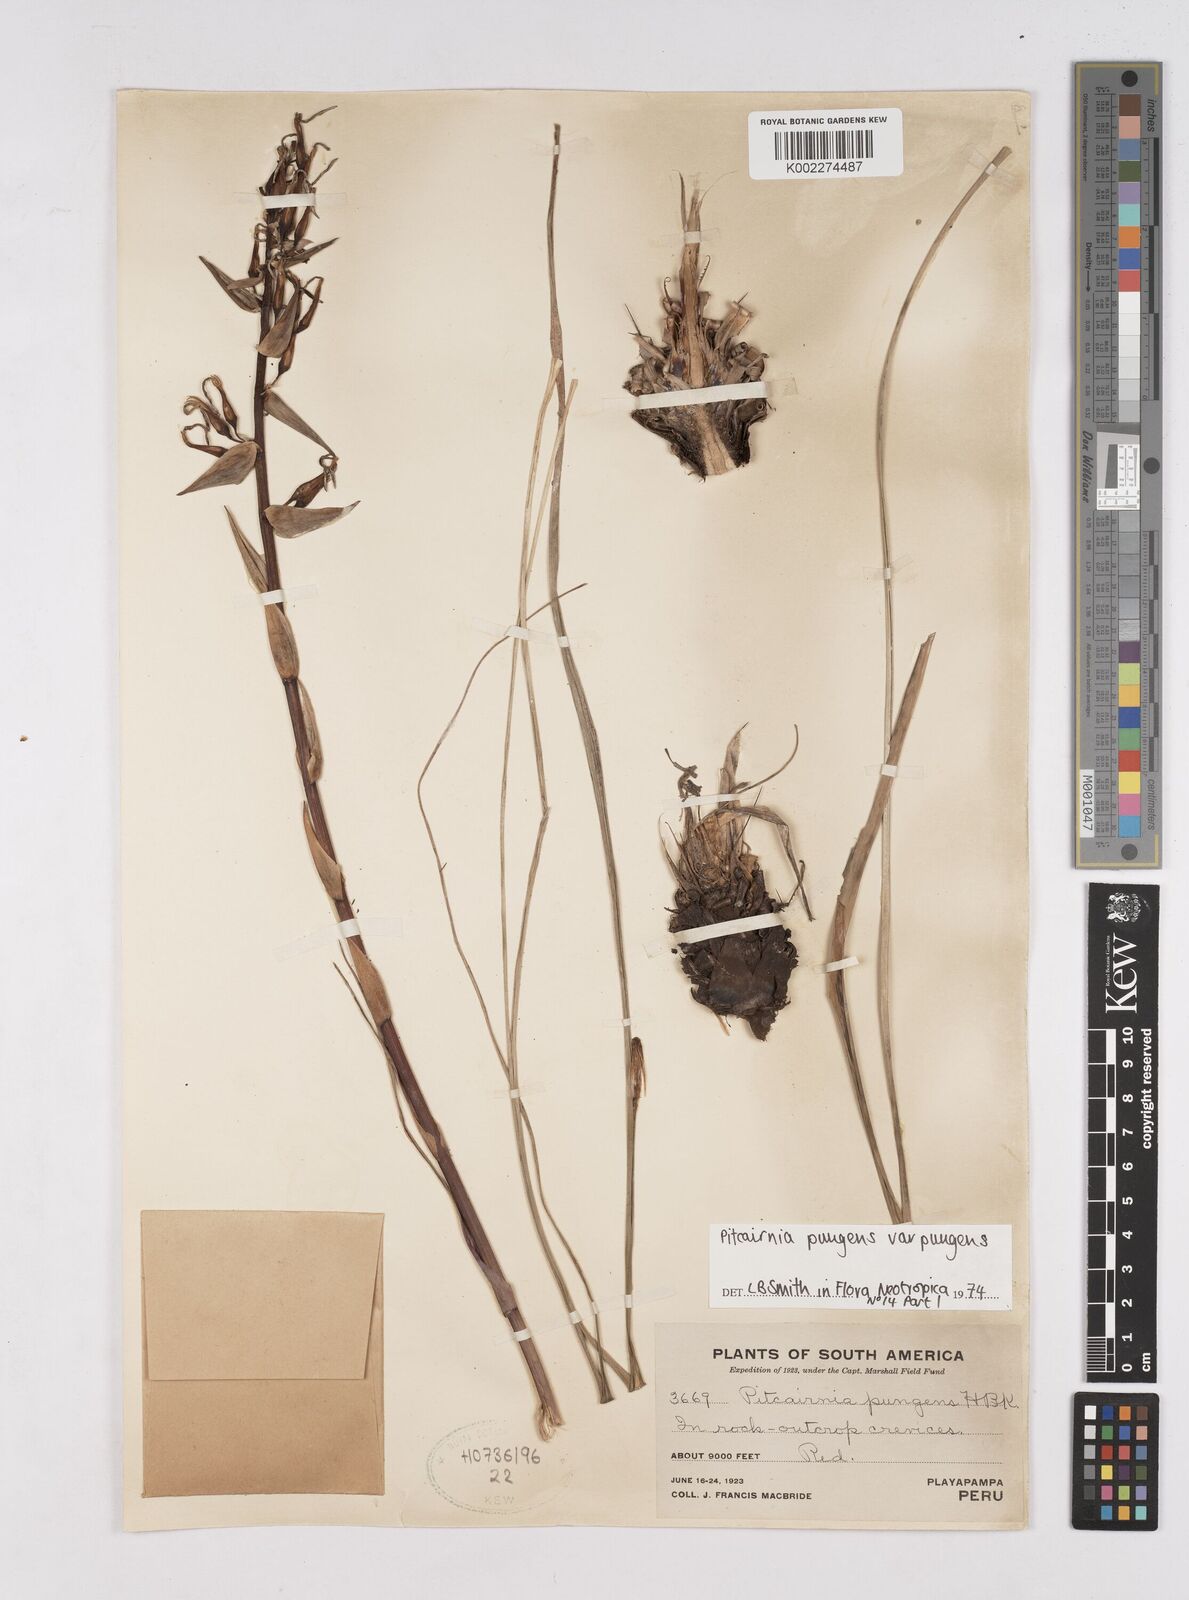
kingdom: Plantae
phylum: Tracheophyta
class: Liliopsida
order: Poales
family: Bromeliaceae
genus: Pitcairnia
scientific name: Pitcairnia pungens
